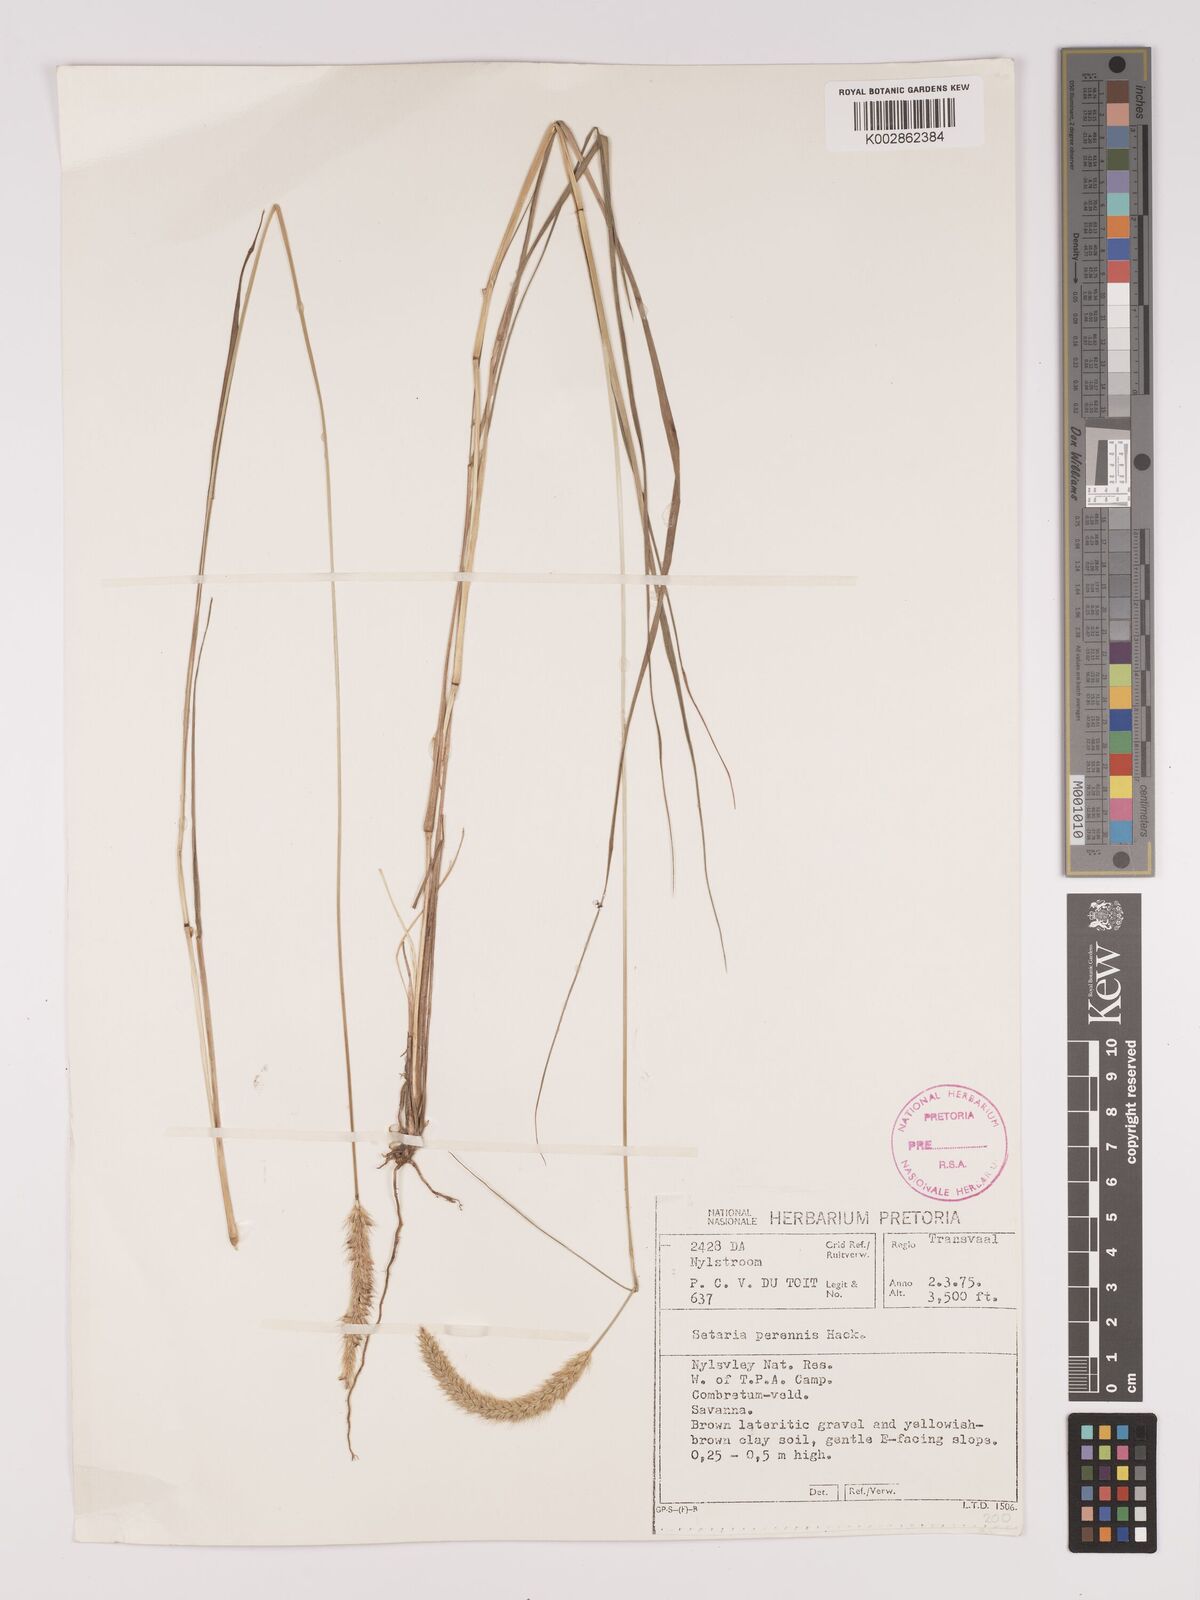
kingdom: Plantae
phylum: Tracheophyta
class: Liliopsida
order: Poales
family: Poaceae
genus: Setaria
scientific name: Setaria sphacelata
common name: African bristlegrass
